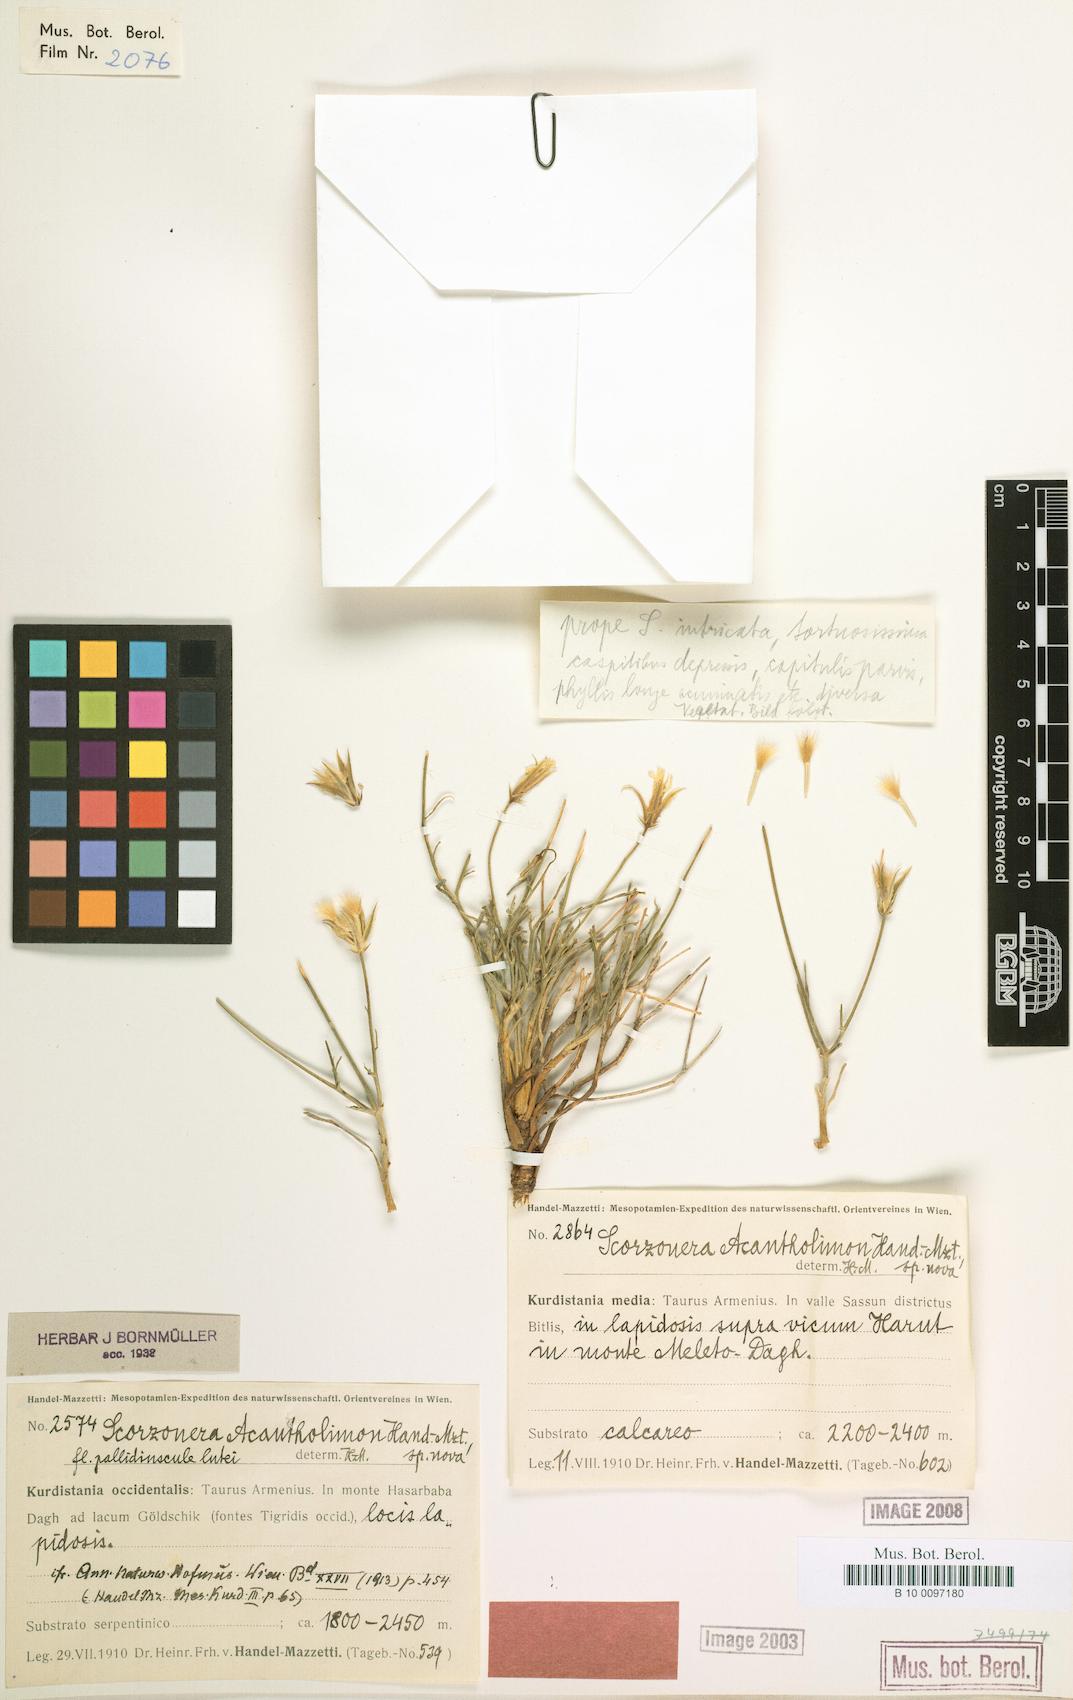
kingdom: Plantae
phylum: Tracheophyta
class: Magnoliopsida
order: Asterales
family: Asteraceae
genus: Ramaliella
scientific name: Ramaliella acantholimon
